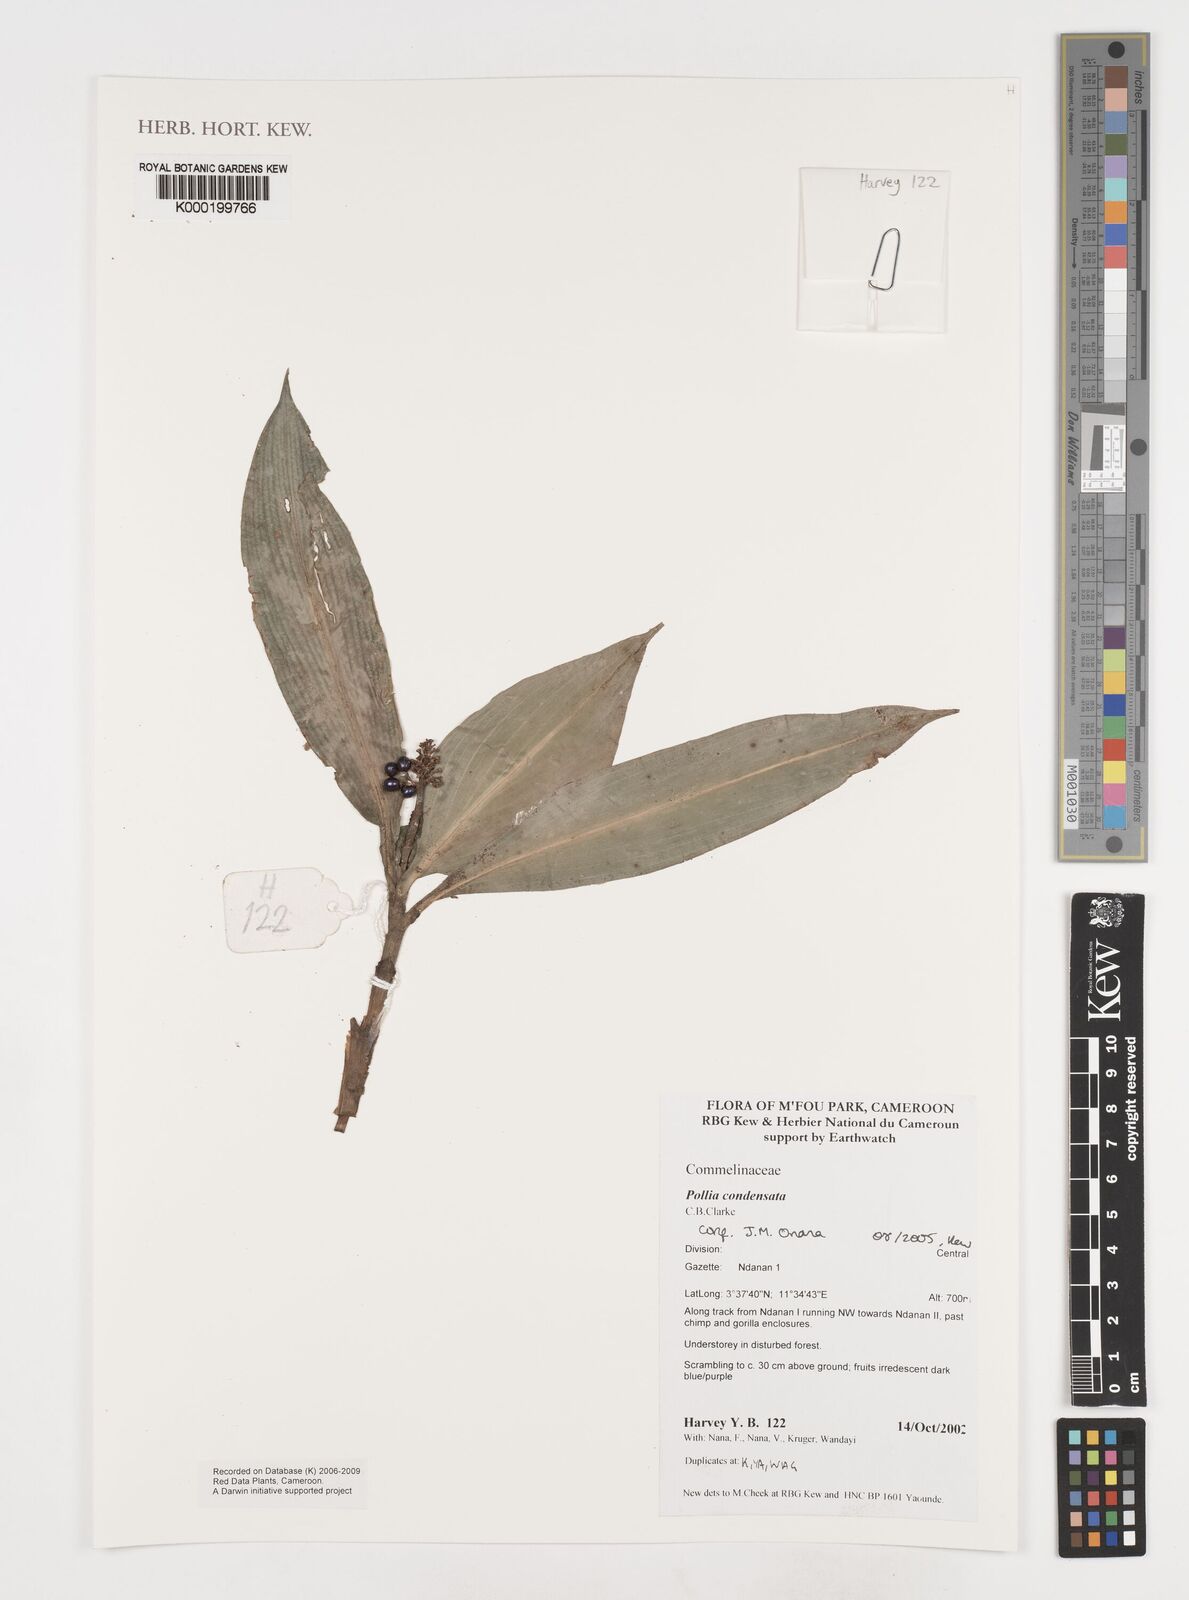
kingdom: Plantae
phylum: Tracheophyta
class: Liliopsida
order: Commelinales
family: Commelinaceae
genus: Pollia
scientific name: Pollia condensata
